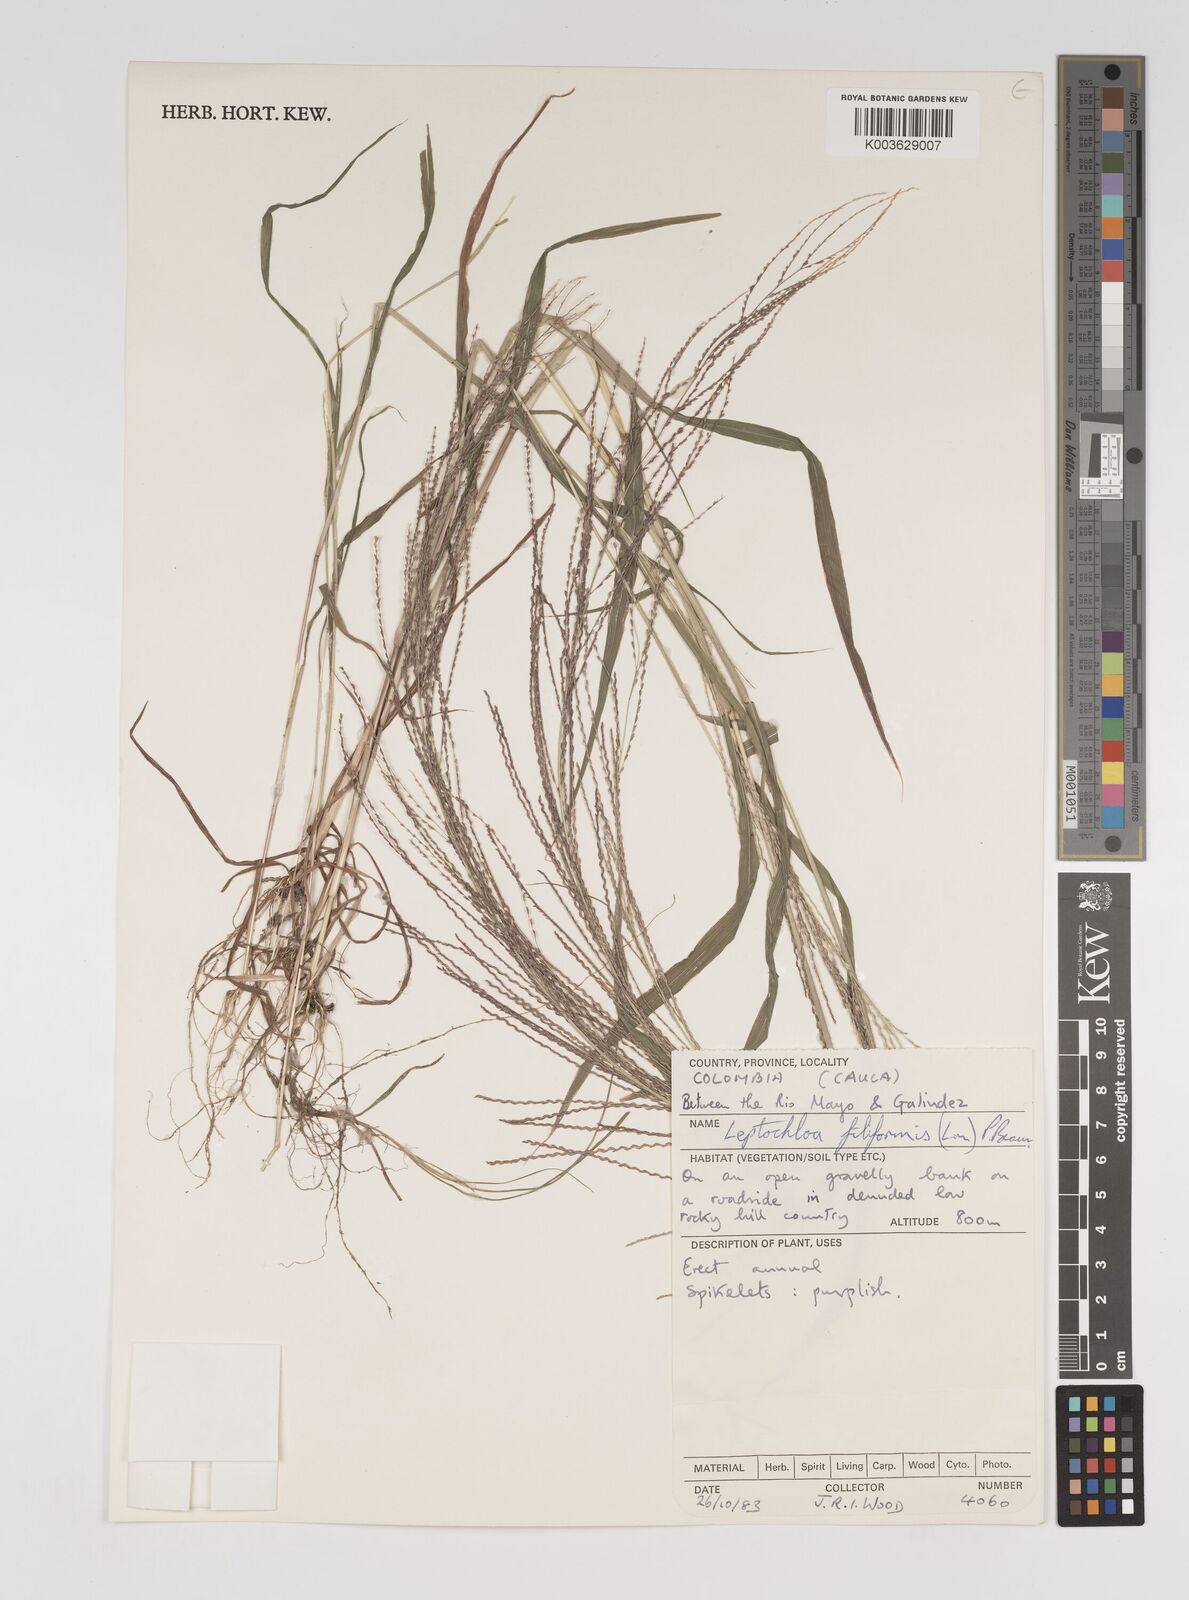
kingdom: Plantae
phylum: Tracheophyta
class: Liliopsida
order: Poales
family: Poaceae
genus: Leptochloa
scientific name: Leptochloa panicea
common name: Mucronate sprangletop
